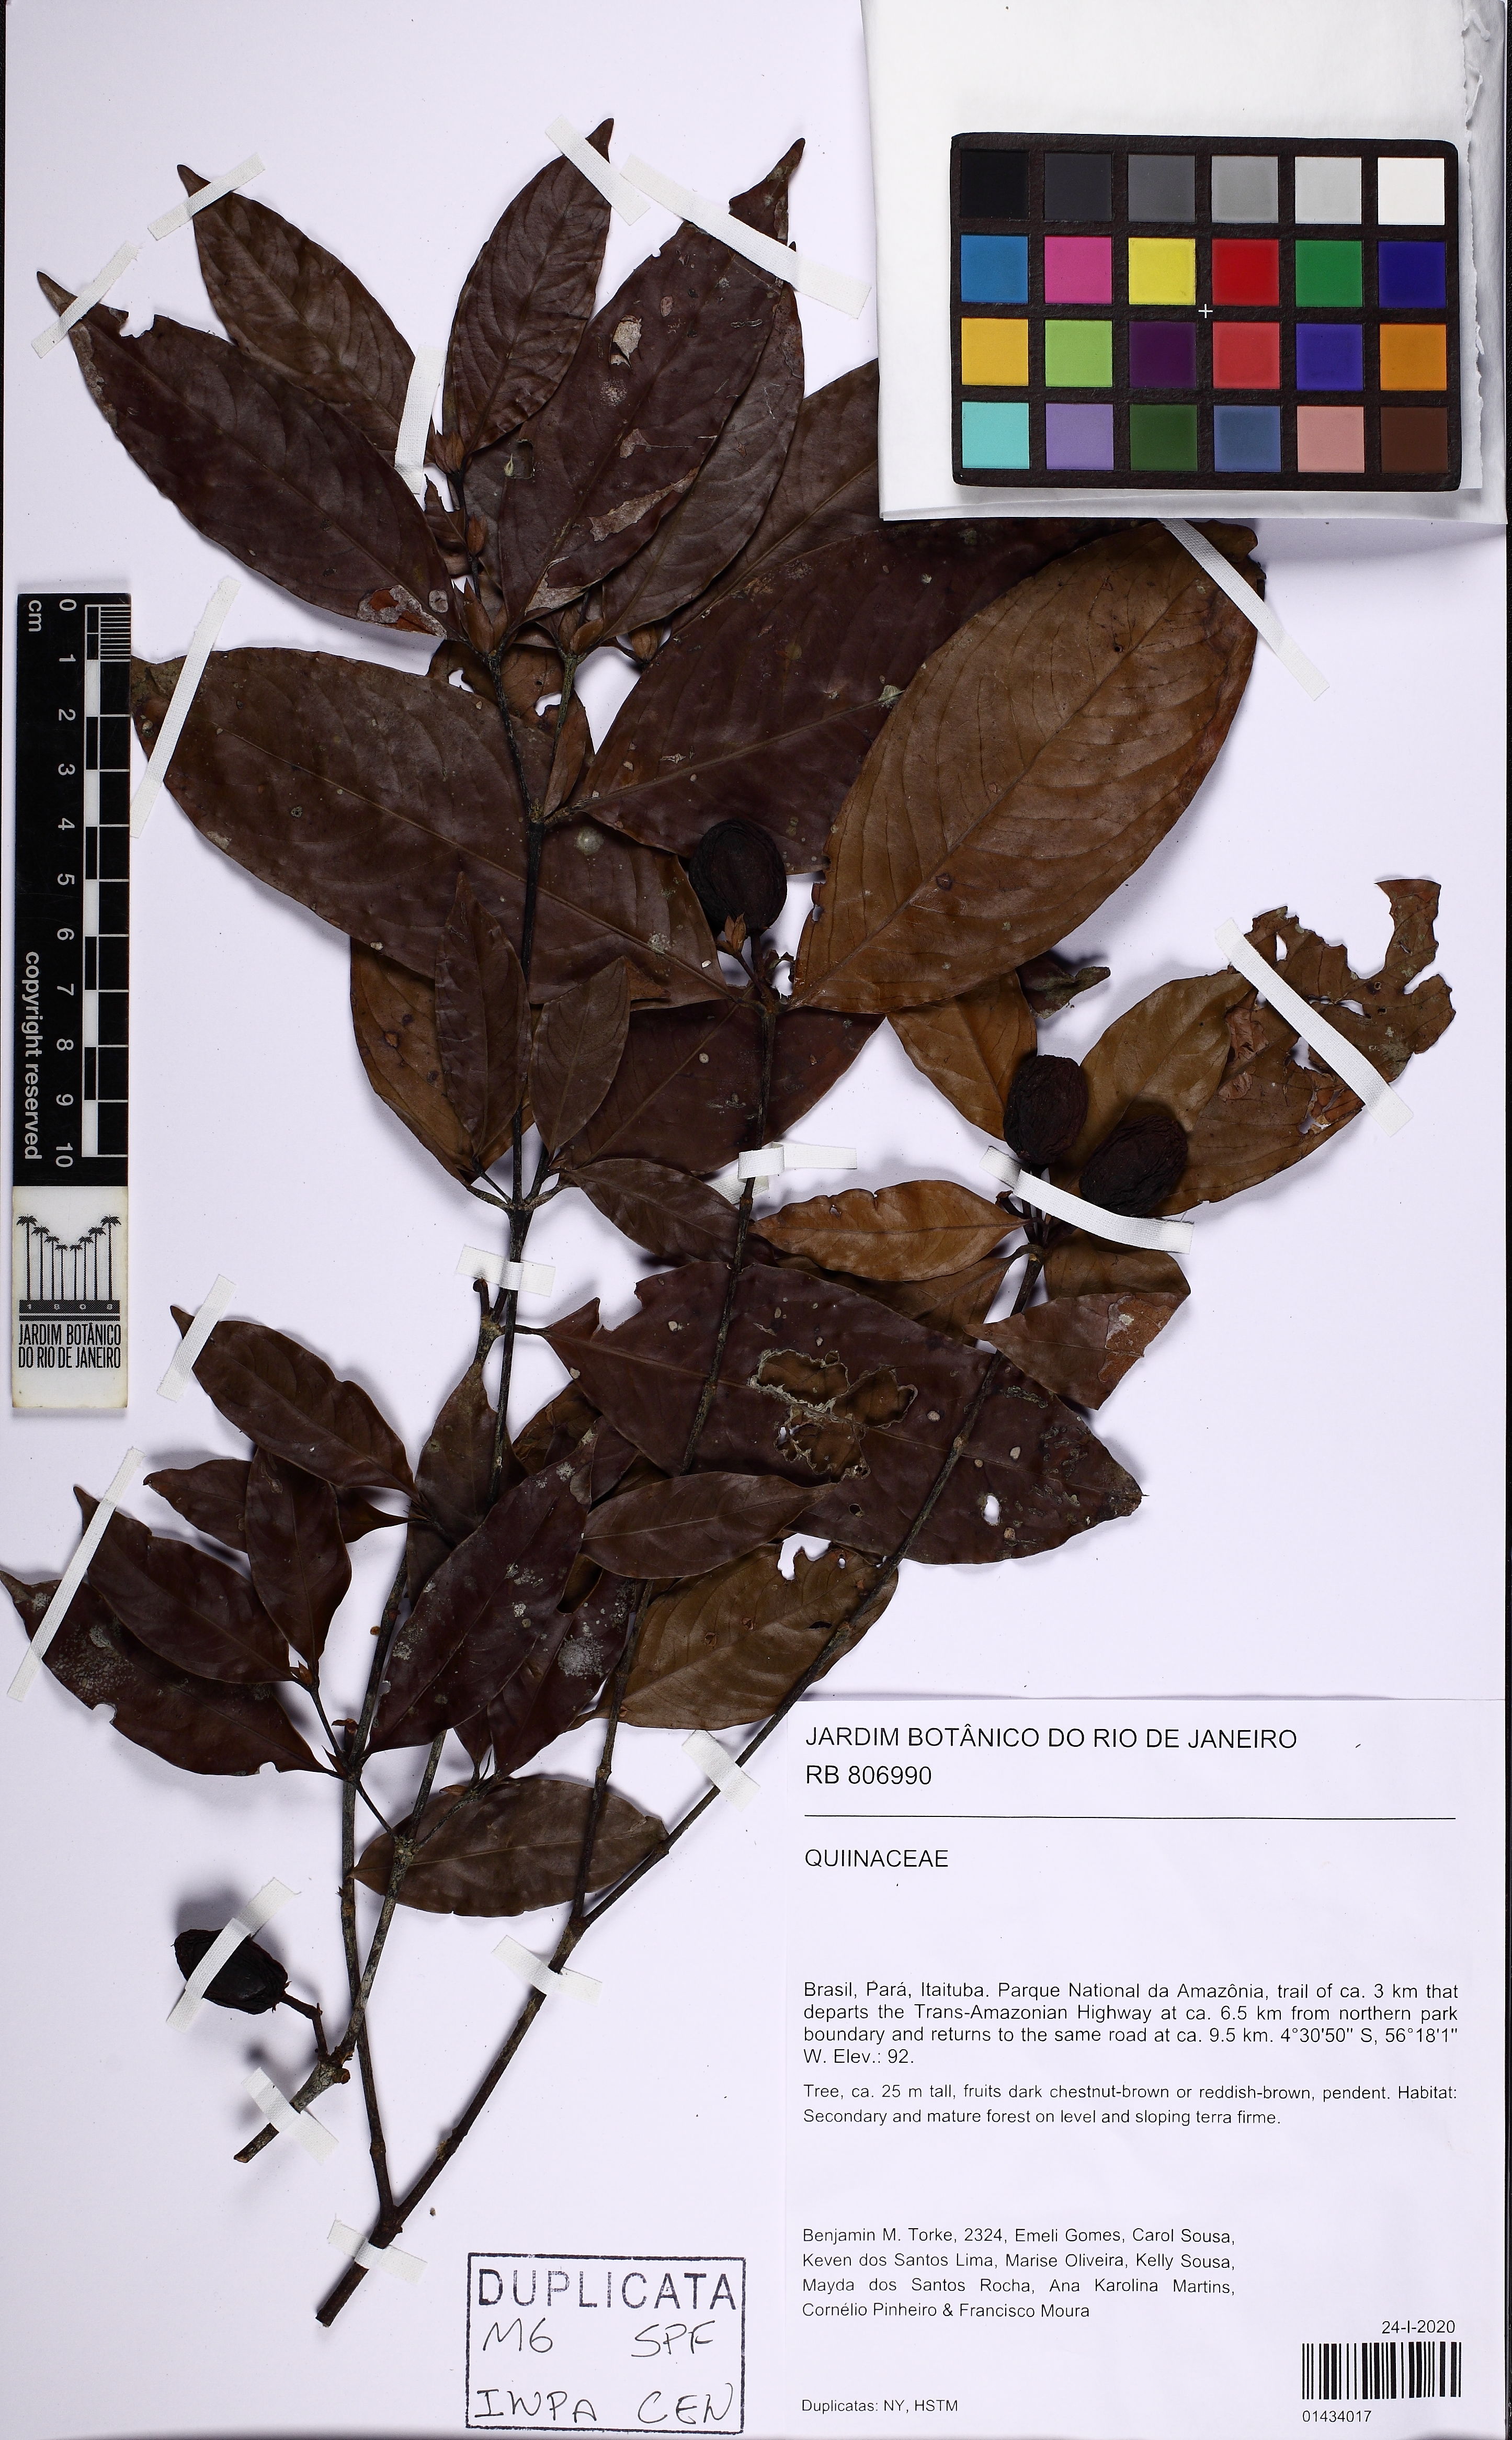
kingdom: Plantae
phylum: Tracheophyta
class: Magnoliopsida
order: Malpighiales
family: Quiinaceae
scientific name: Quiinaceae
